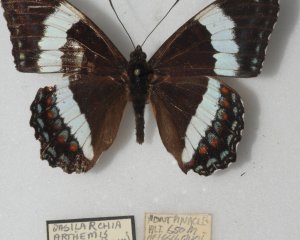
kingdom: Animalia
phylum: Arthropoda
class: Insecta
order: Lepidoptera
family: Nymphalidae
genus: Limenitis
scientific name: Limenitis arthemis
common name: Red-spotted Admiral
